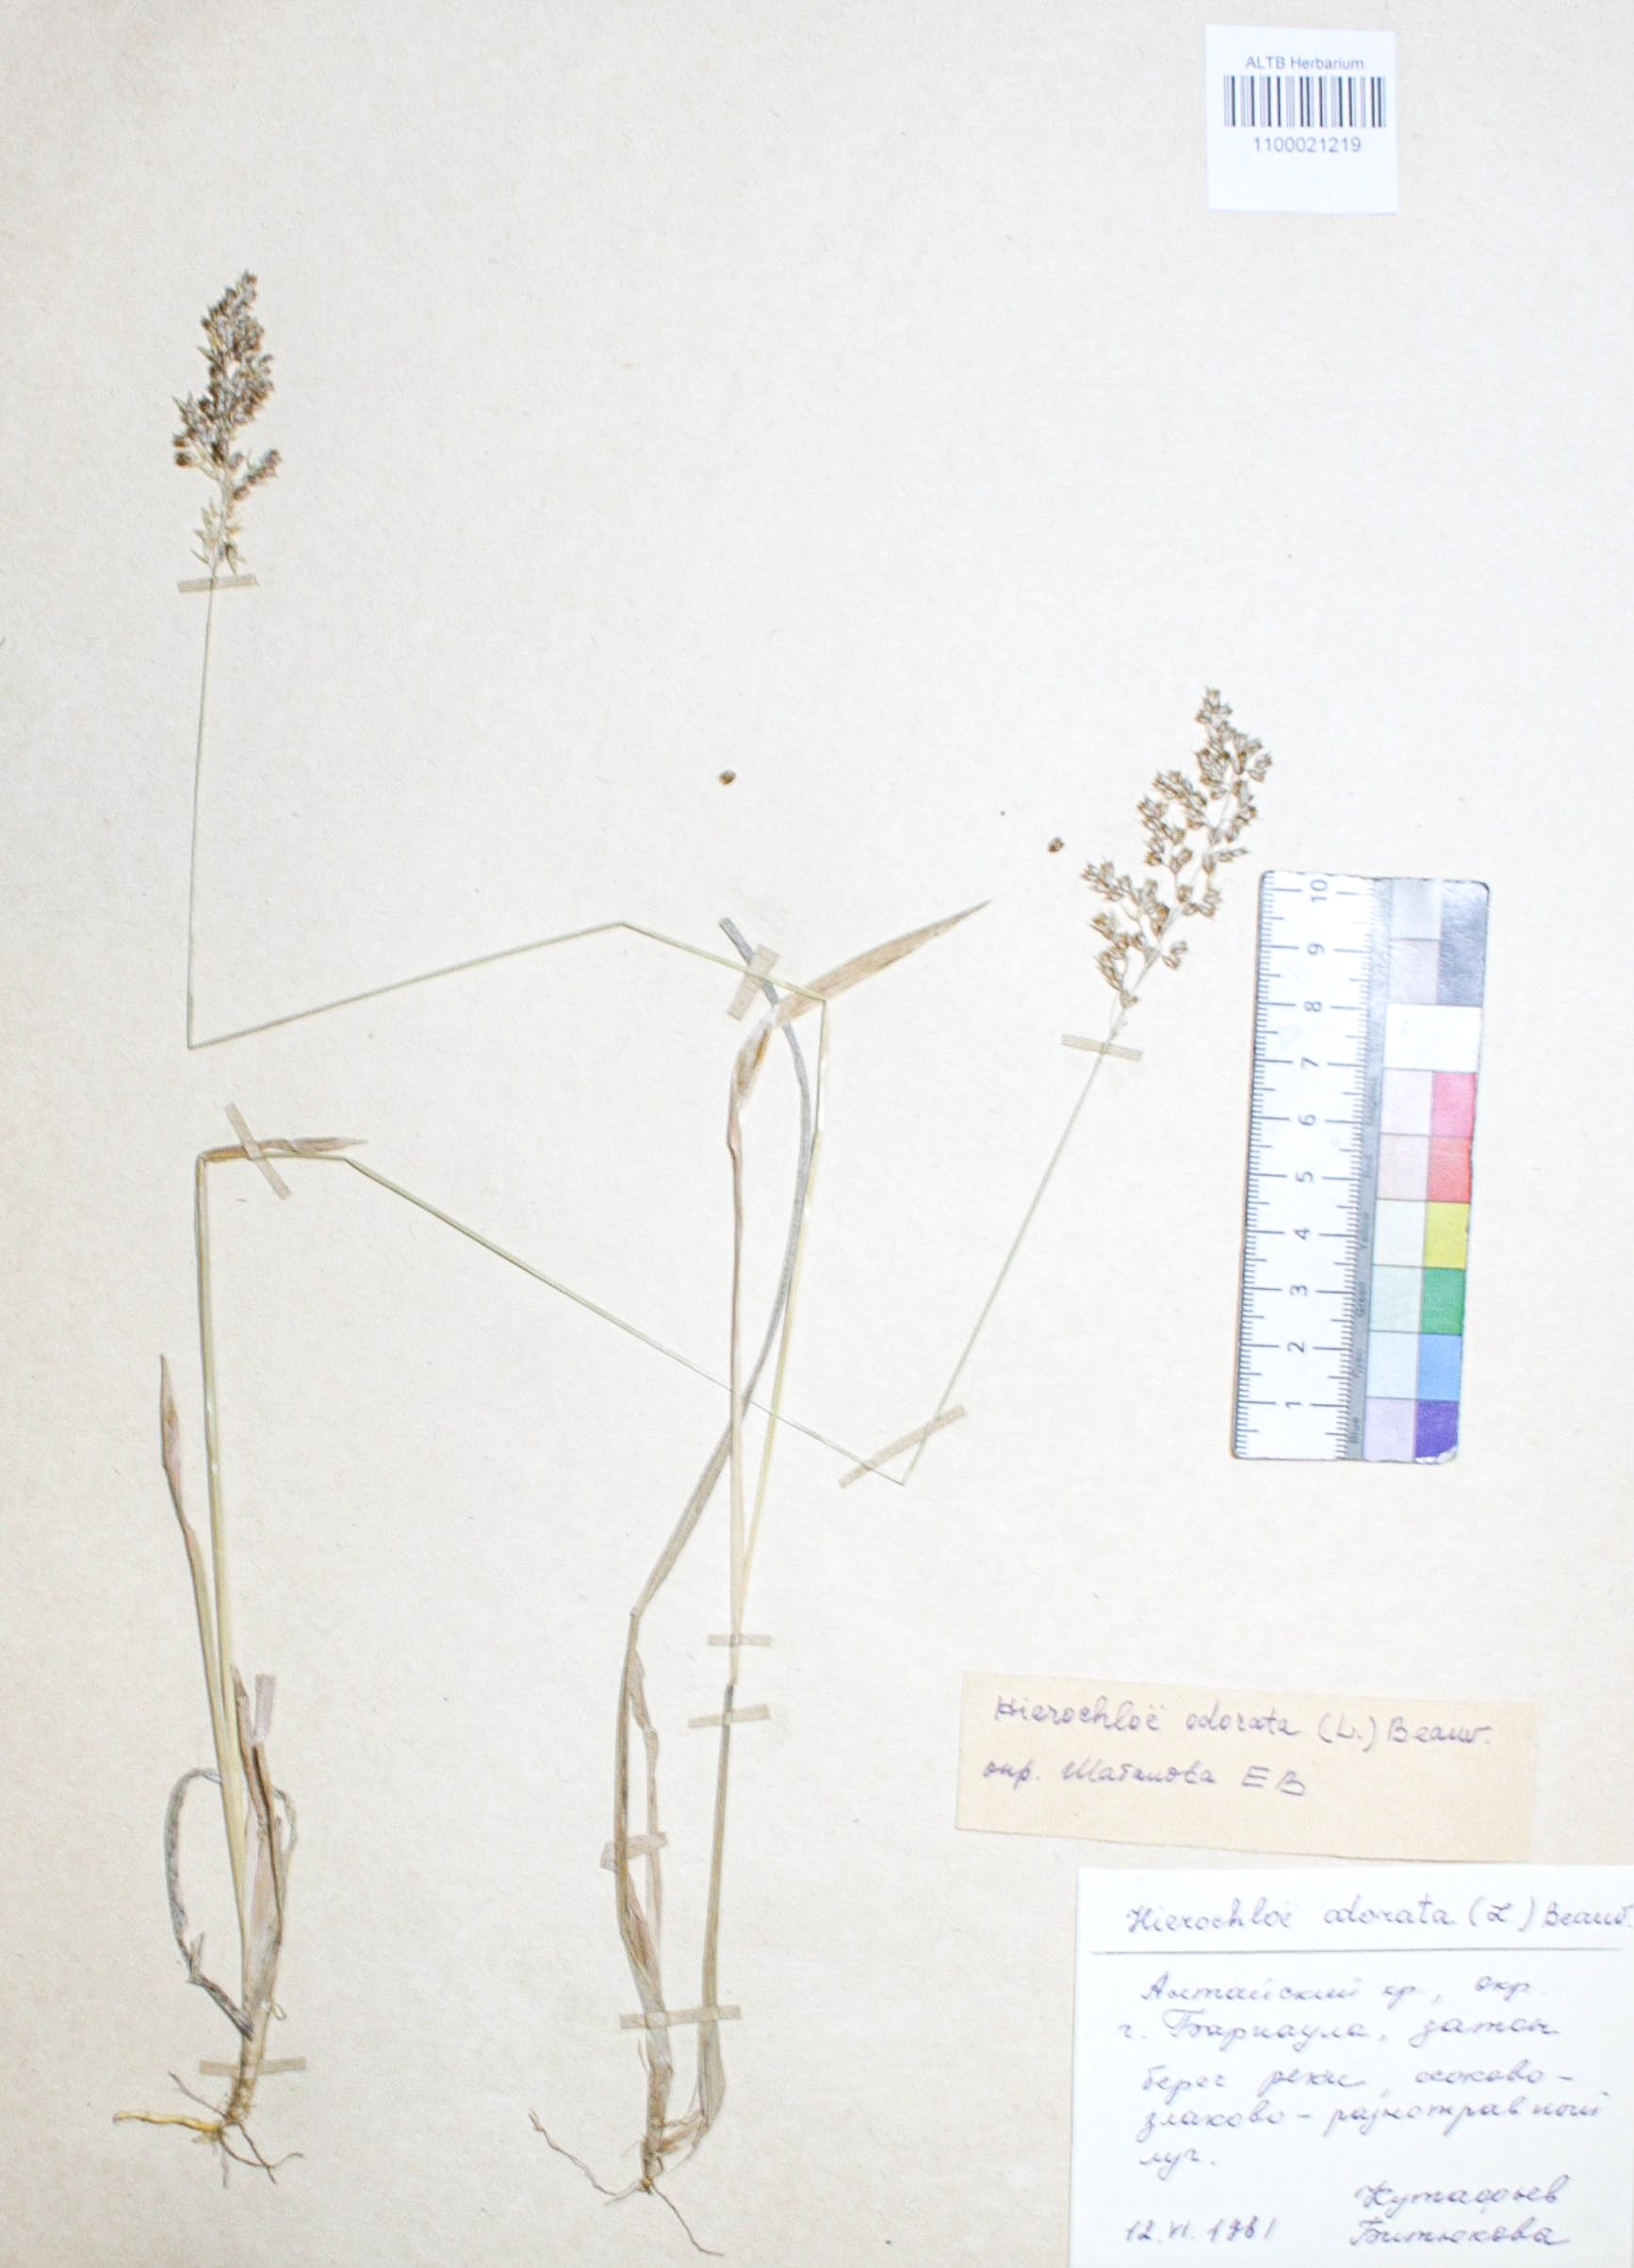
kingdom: Plantae
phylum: Tracheophyta
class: Liliopsida
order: Poales
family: Poaceae
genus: Anthoxanthum
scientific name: Anthoxanthum nitens
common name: Holy grass
